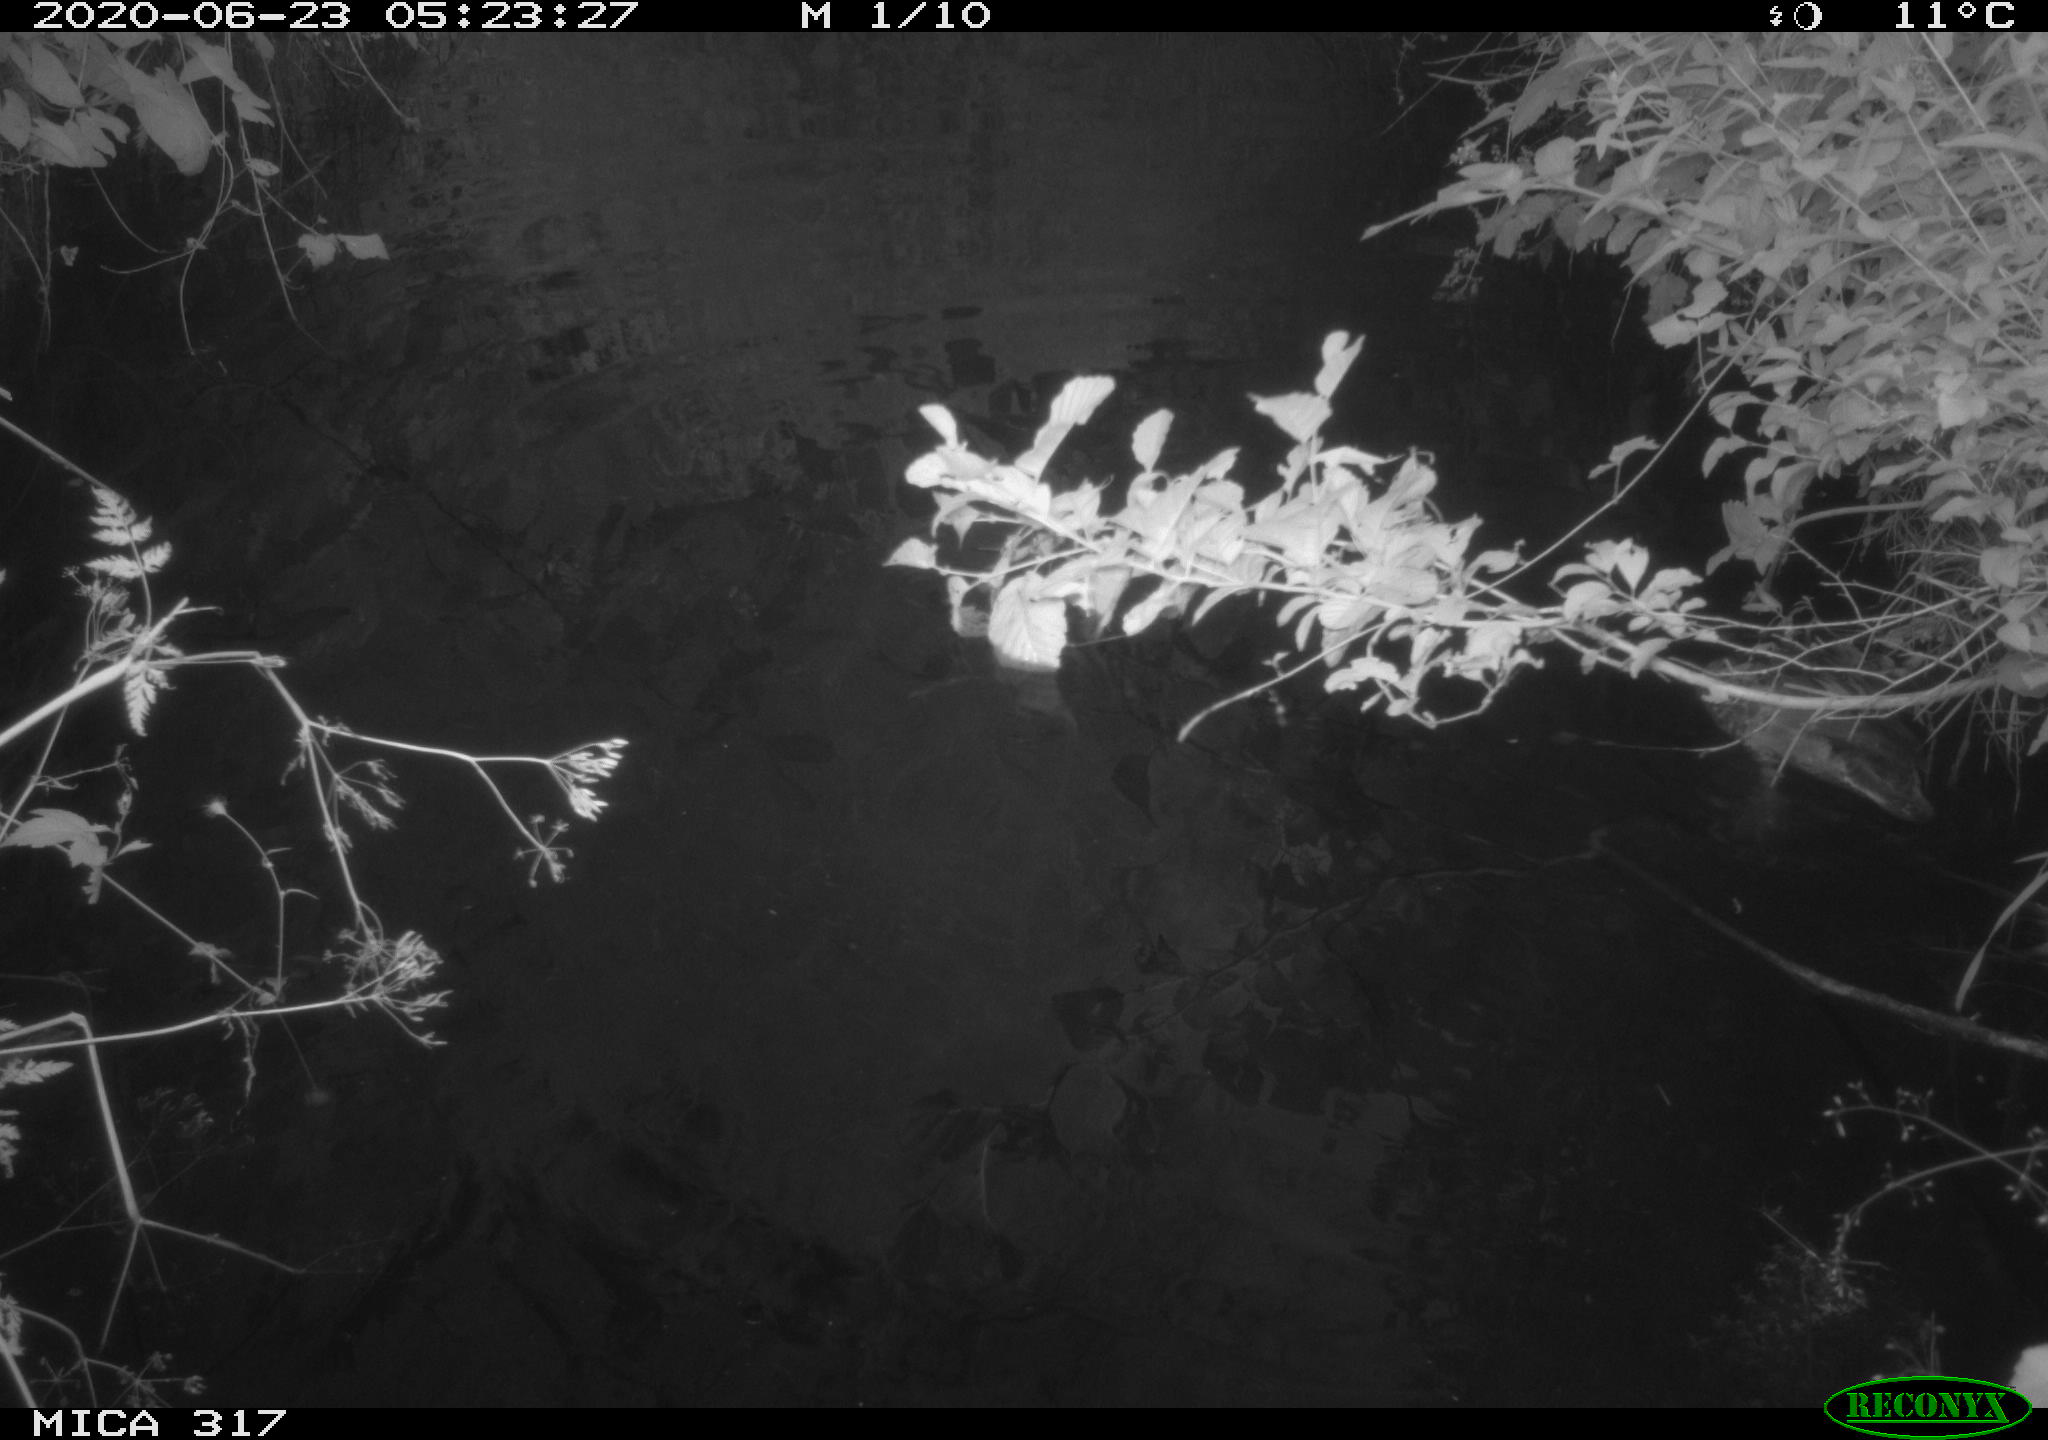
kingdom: Animalia
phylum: Chordata
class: Aves
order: Anseriformes
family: Anatidae
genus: Anas
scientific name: Anas platyrhynchos
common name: Mallard
